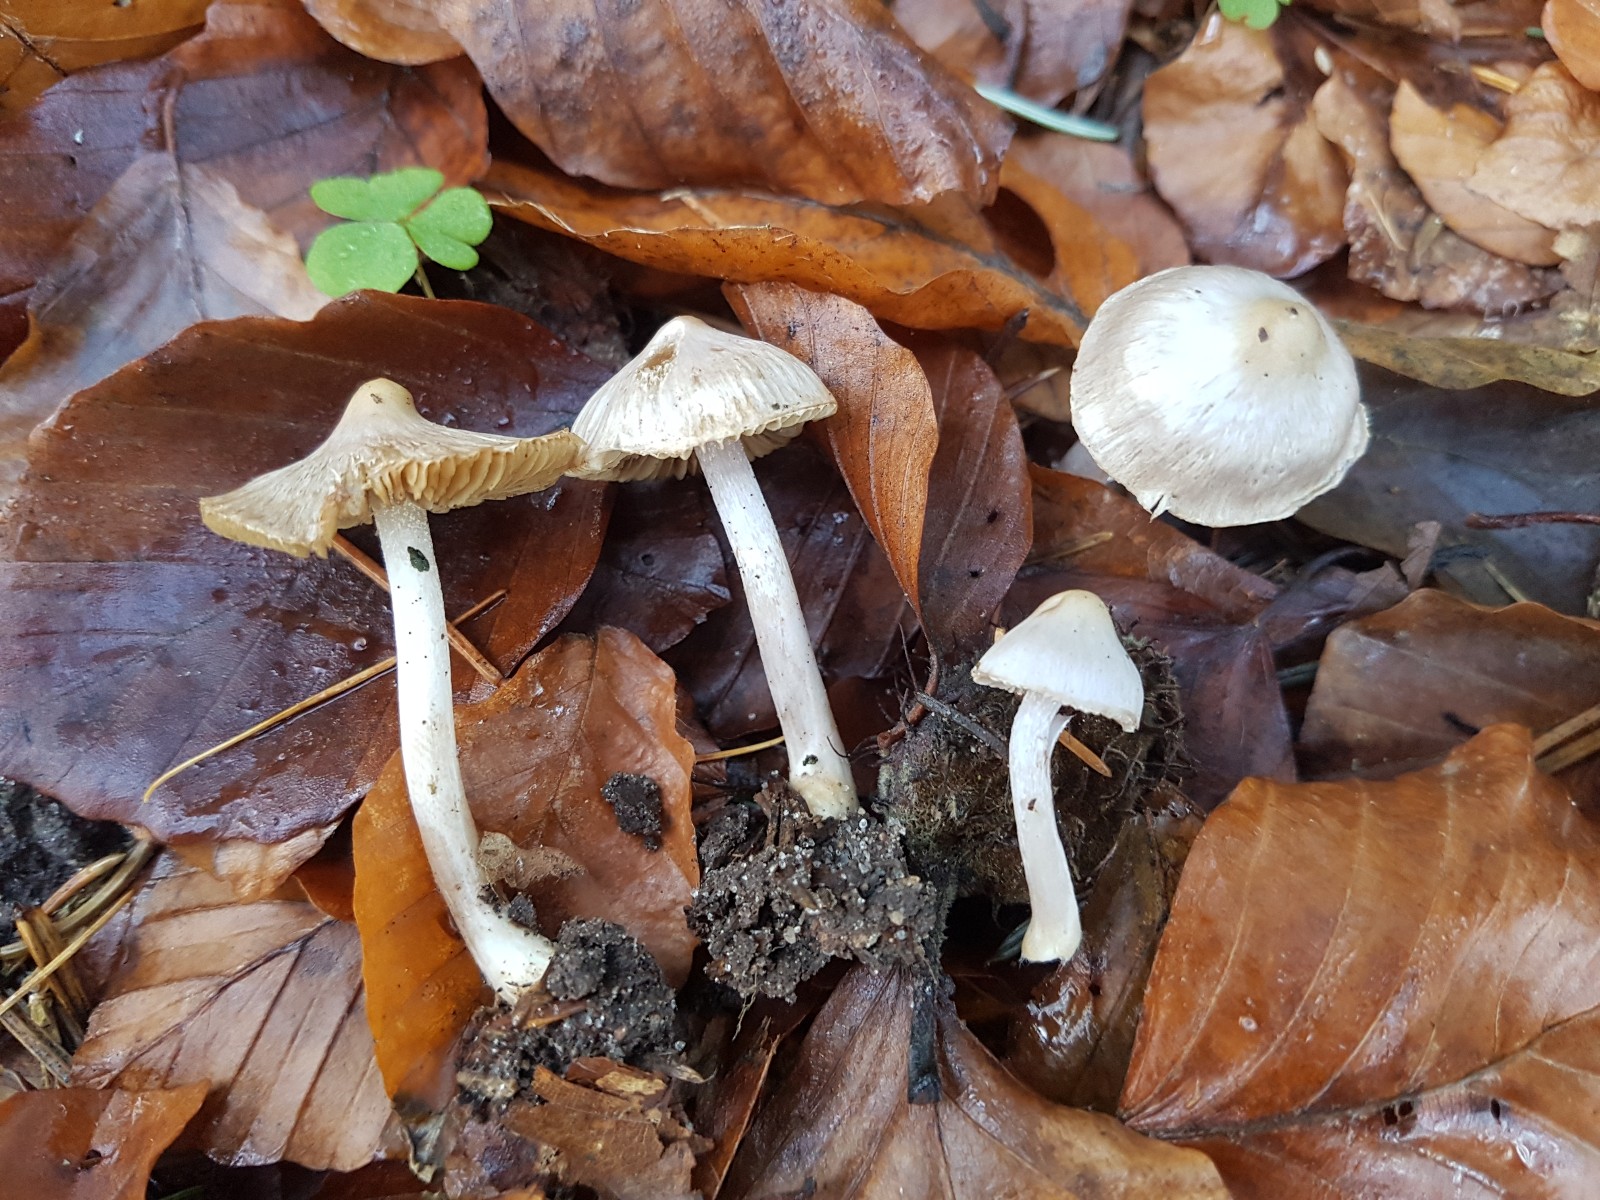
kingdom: Fungi
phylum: Basidiomycota
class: Agaricomycetes
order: Agaricales
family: Inocybaceae
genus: Inocybe
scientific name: Inocybe
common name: almindelig trævlhat
